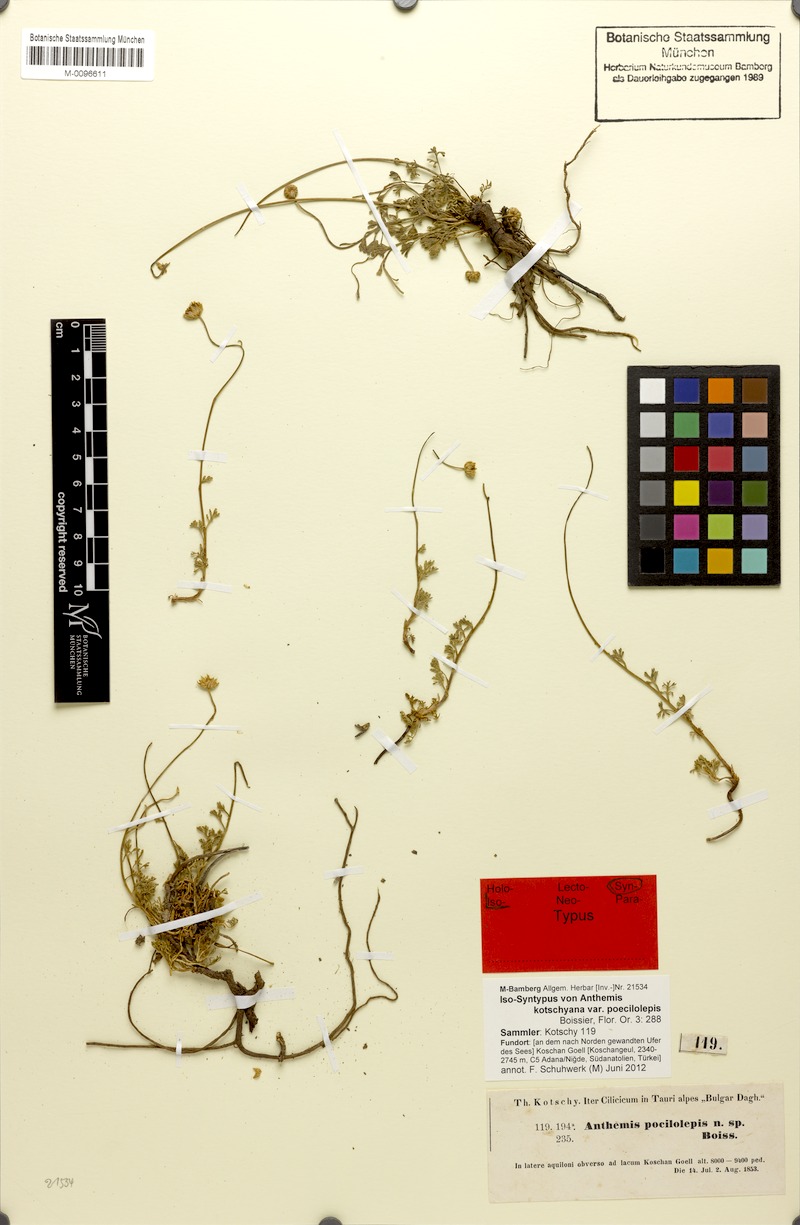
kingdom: Plantae
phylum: Tracheophyta
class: Magnoliopsida
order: Asterales
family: Asteraceae
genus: Anthemis
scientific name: Anthemis kotschyana
